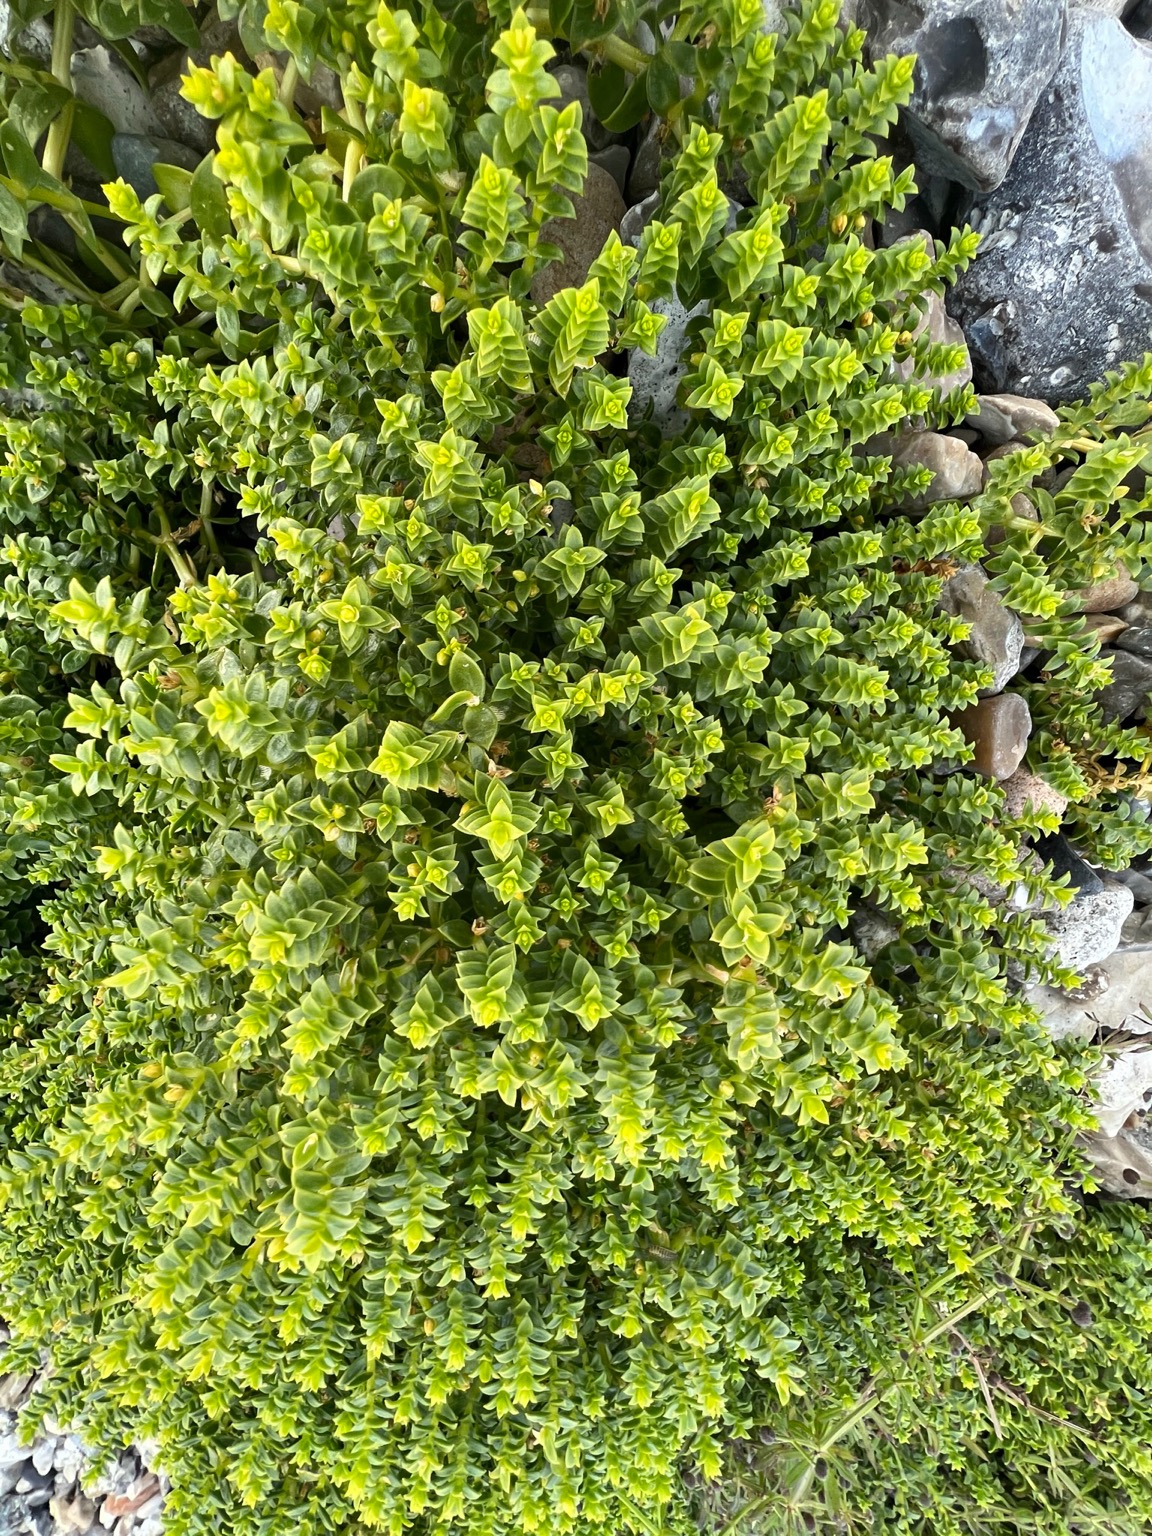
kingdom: Plantae
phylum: Tracheophyta
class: Magnoliopsida
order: Caryophyllales
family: Caryophyllaceae
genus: Honckenya
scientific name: Honckenya peploides
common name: Strandarve
